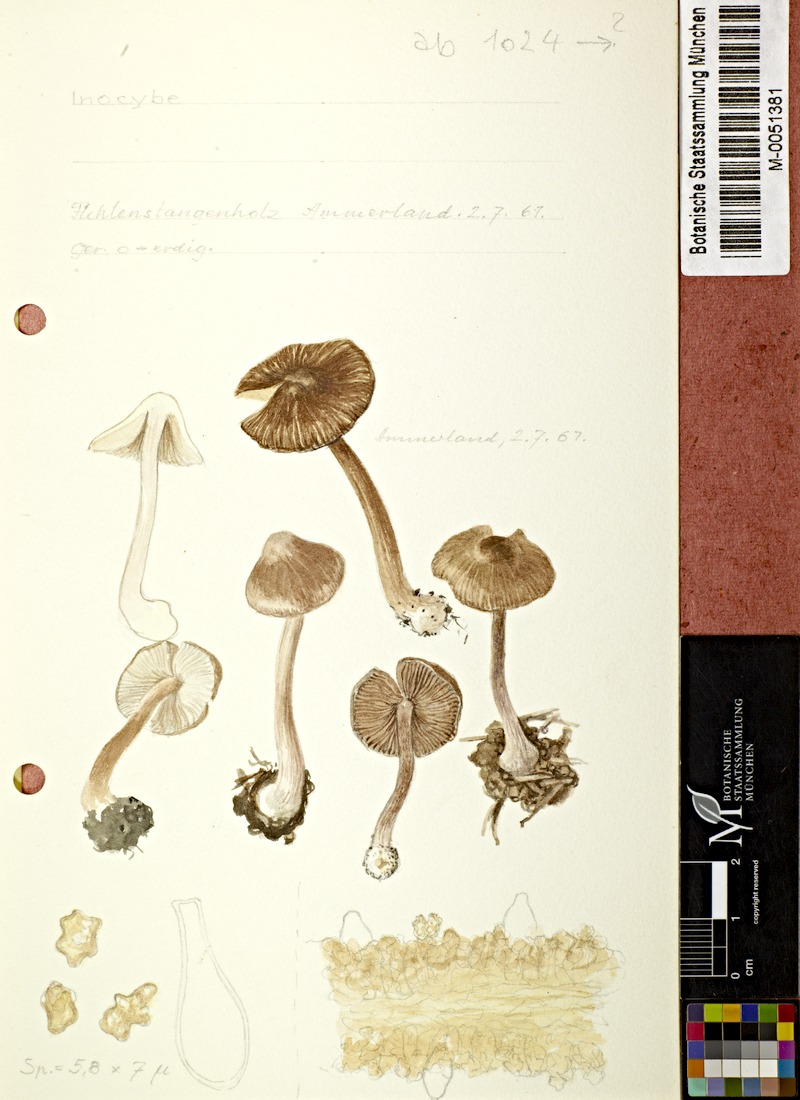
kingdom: Fungi
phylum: Basidiomycota
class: Agaricomycetes
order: Agaricales
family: Inocybaceae
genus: Inocybe
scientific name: Inocybe
